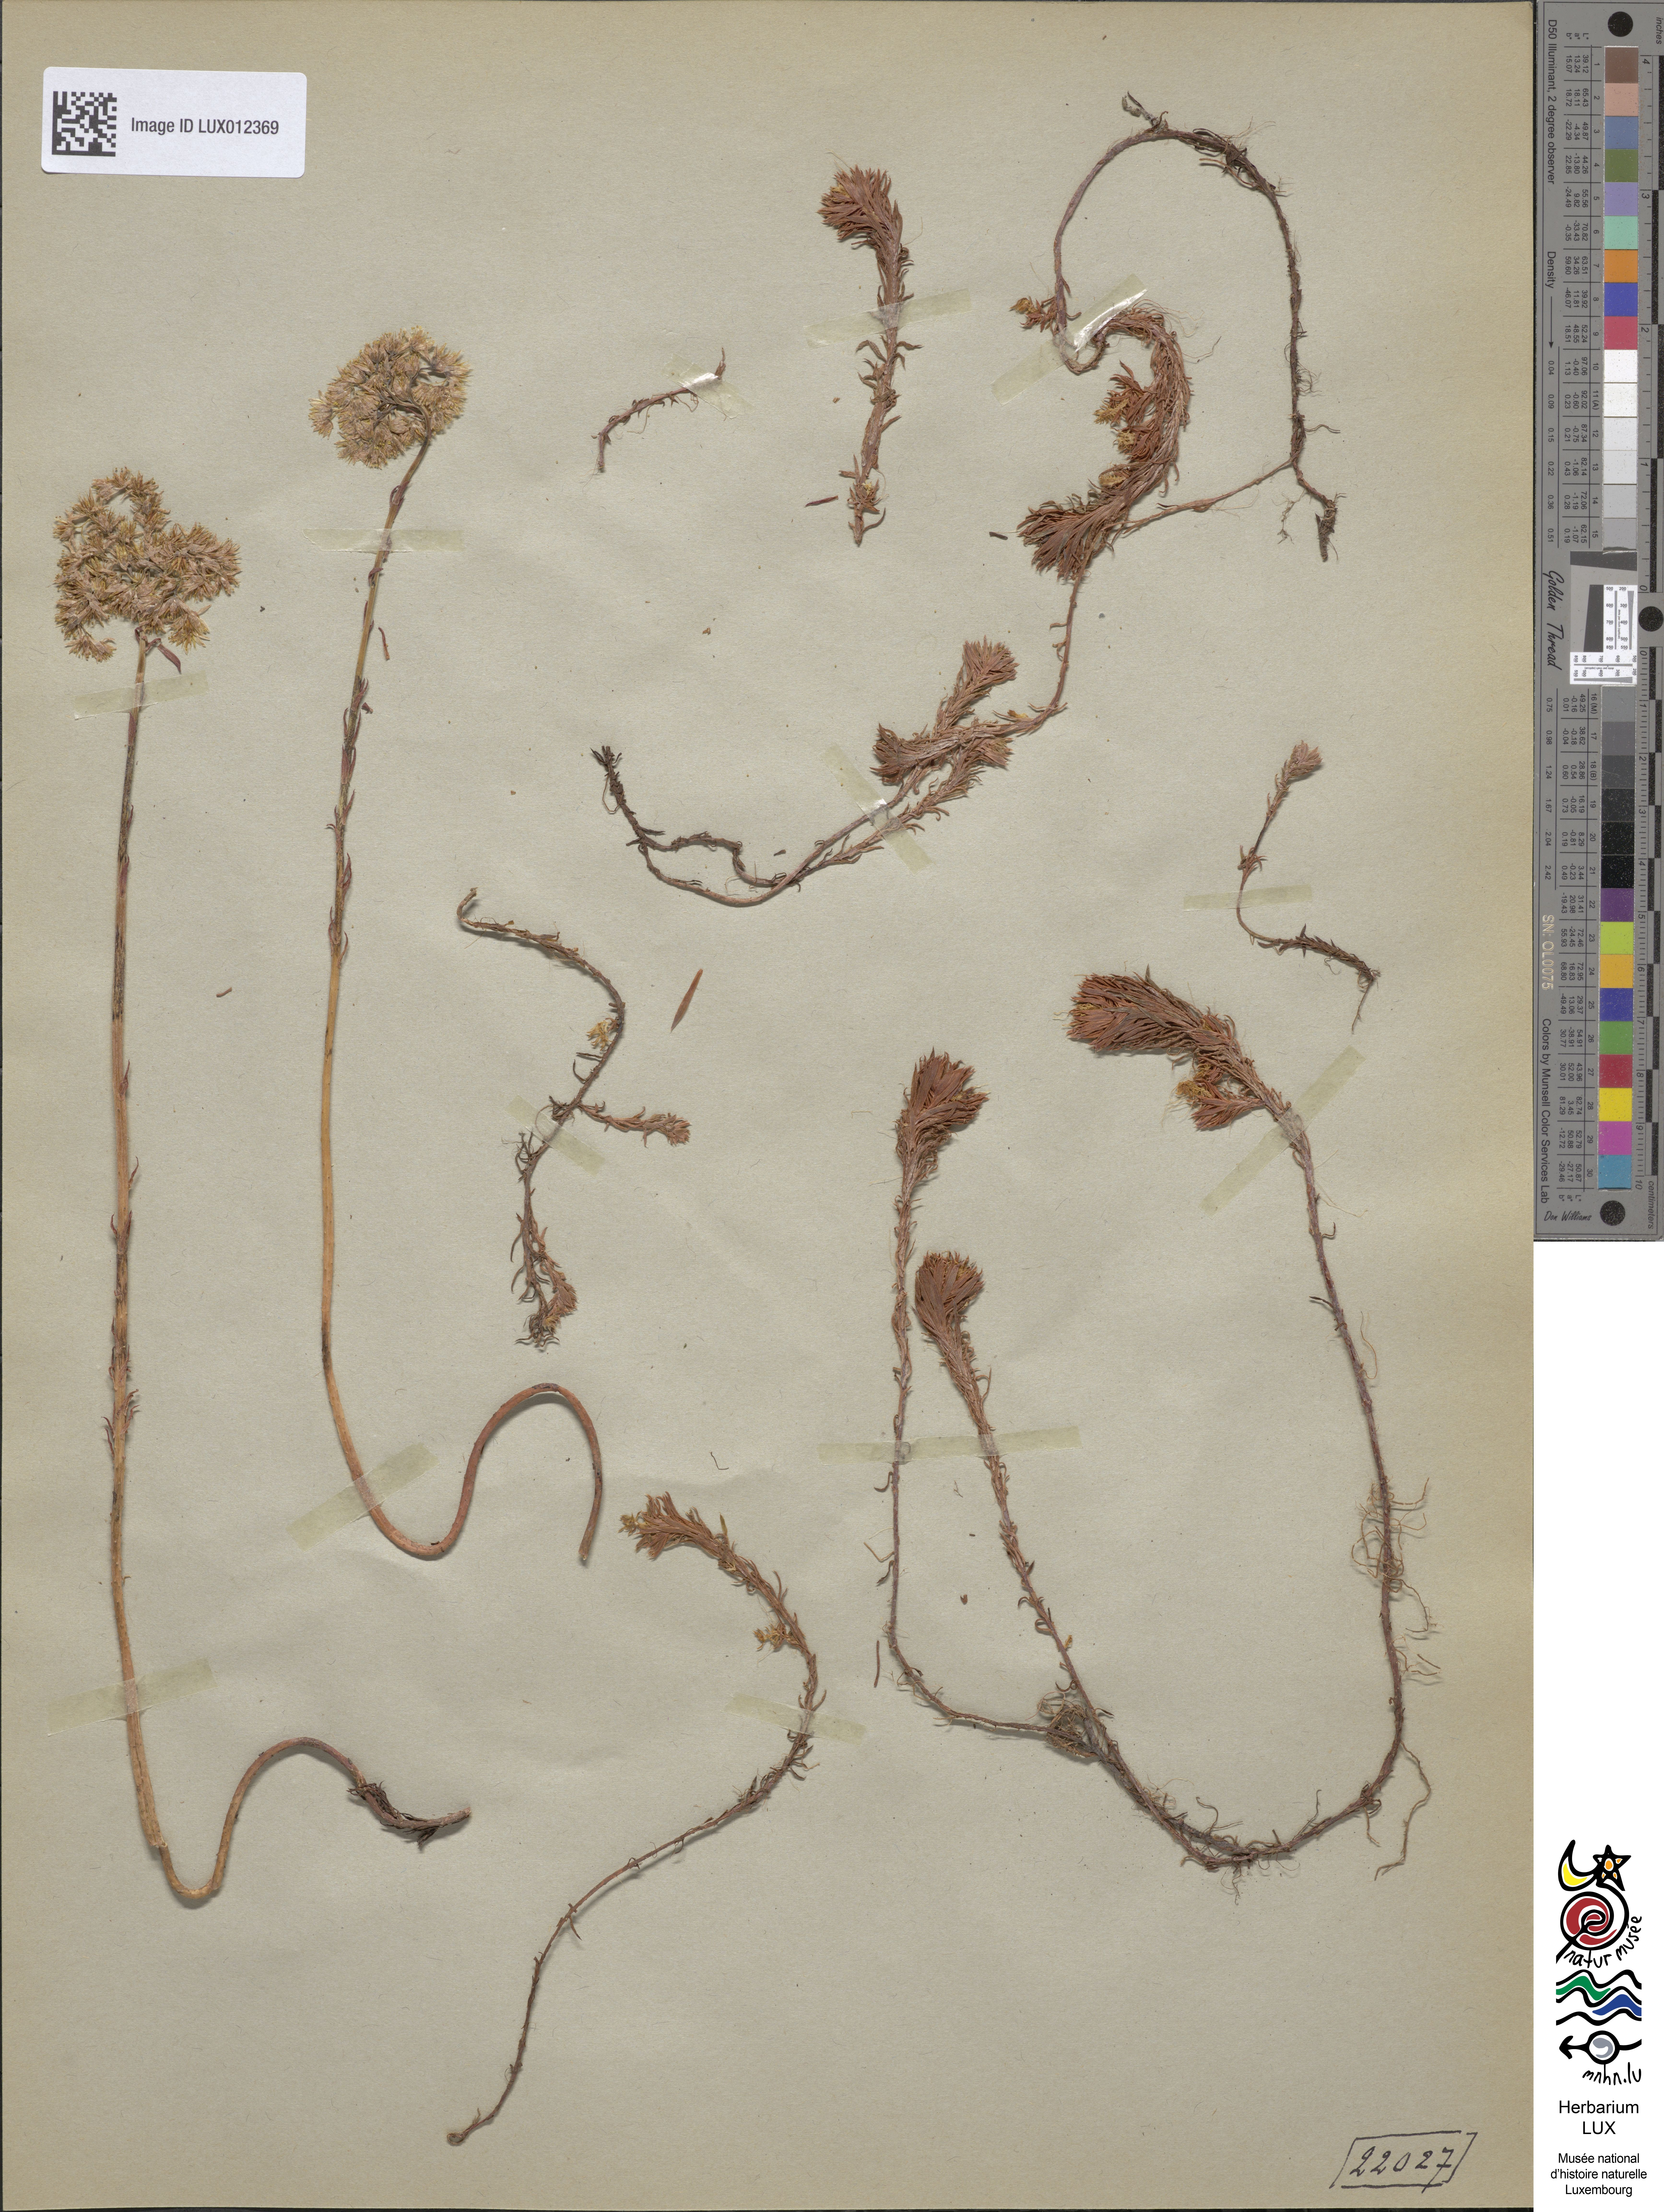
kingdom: Plantae
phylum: Tracheophyta
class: Magnoliopsida
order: Saxifragales
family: Crassulaceae
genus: Petrosedum
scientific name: Petrosedum rupestre
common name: Jenny's stonecrop
